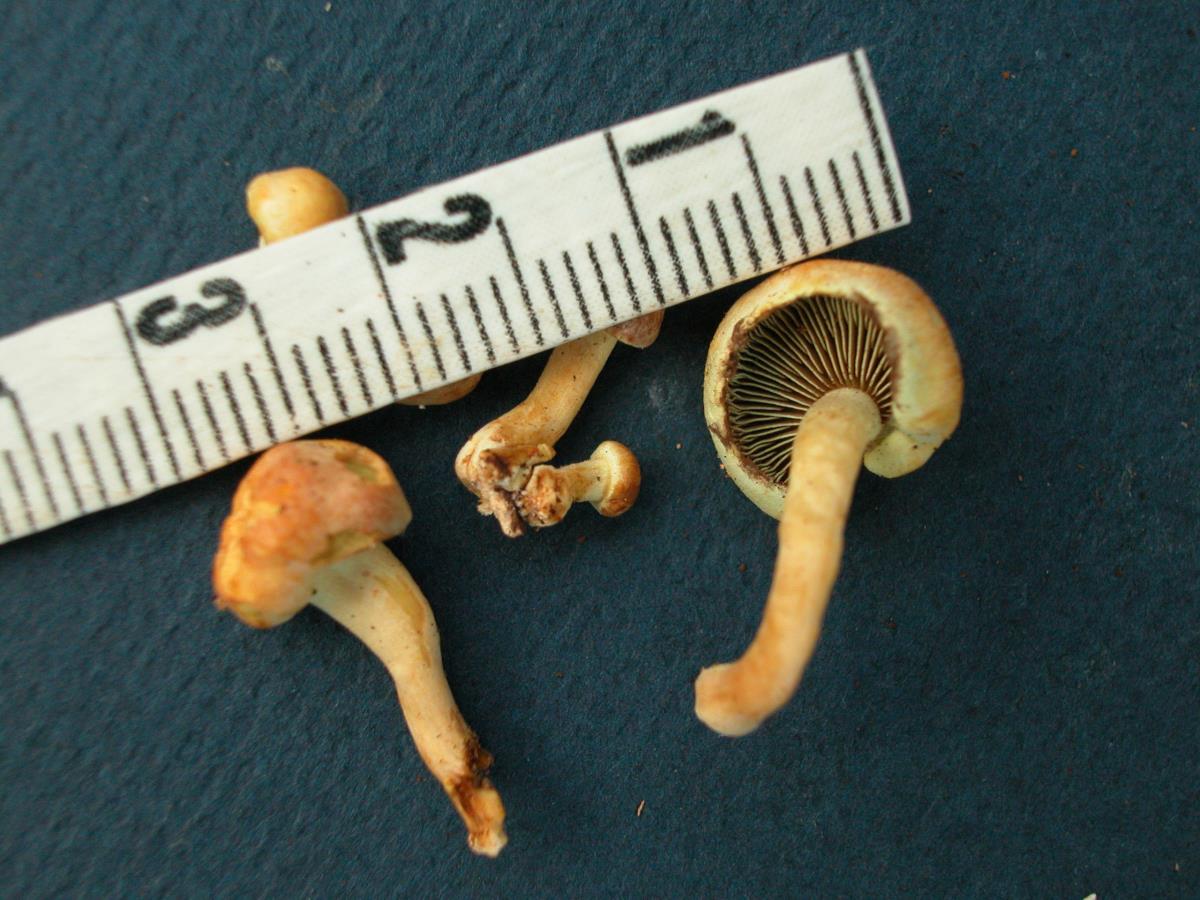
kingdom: Fungi
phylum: Basidiomycota
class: Agaricomycetes
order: Agaricales
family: Strophariaceae
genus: Hypholoma
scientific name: Hypholoma fasciculare
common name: Sulphur tuft
